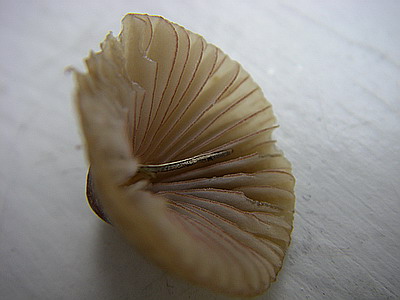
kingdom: Fungi
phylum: Basidiomycota
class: Agaricomycetes
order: Agaricales
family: Mycenaceae
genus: Mycena
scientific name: Mycena olivaceomarginata
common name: brunægget huesvamp
